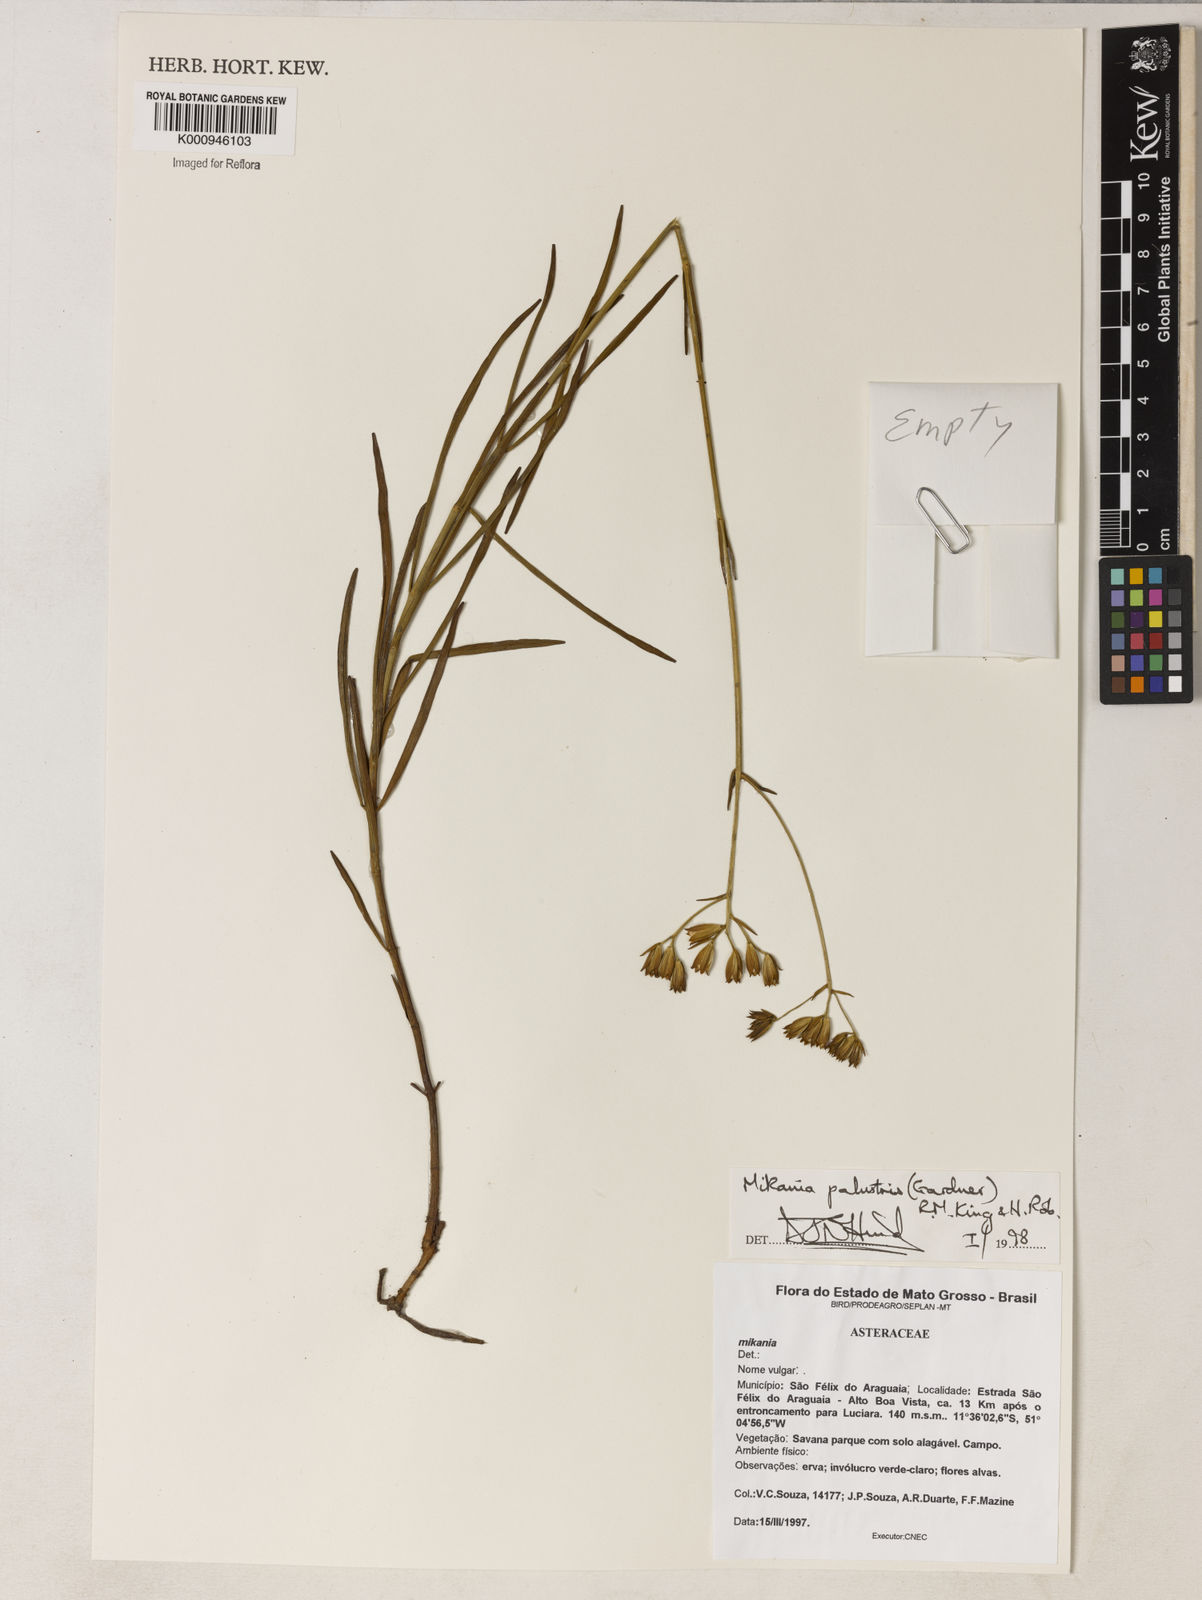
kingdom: Plantae
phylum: Tracheophyta
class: Magnoliopsida
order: Asterales
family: Asteraceae
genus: Mikania
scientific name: Mikania palustris
